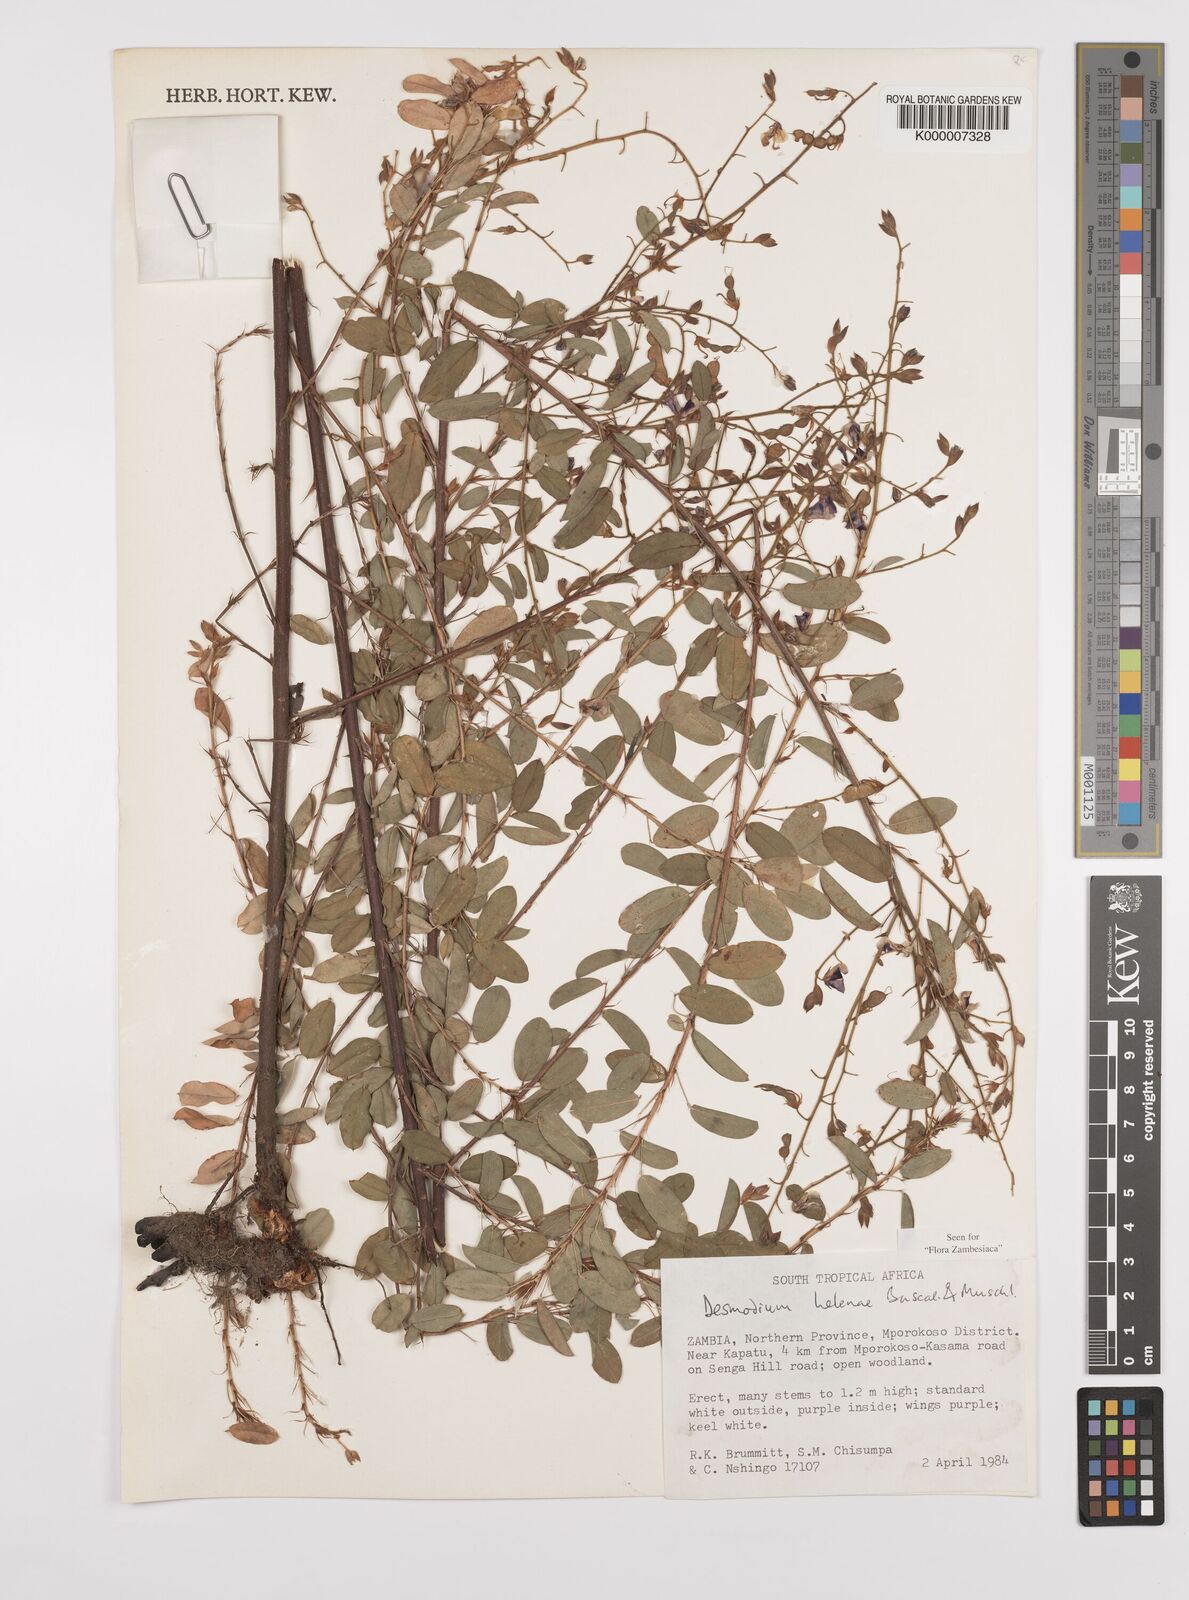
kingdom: Plantae
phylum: Tracheophyta
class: Magnoliopsida
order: Fabales
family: Fabaceae
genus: Grona
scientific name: Grona helenae
